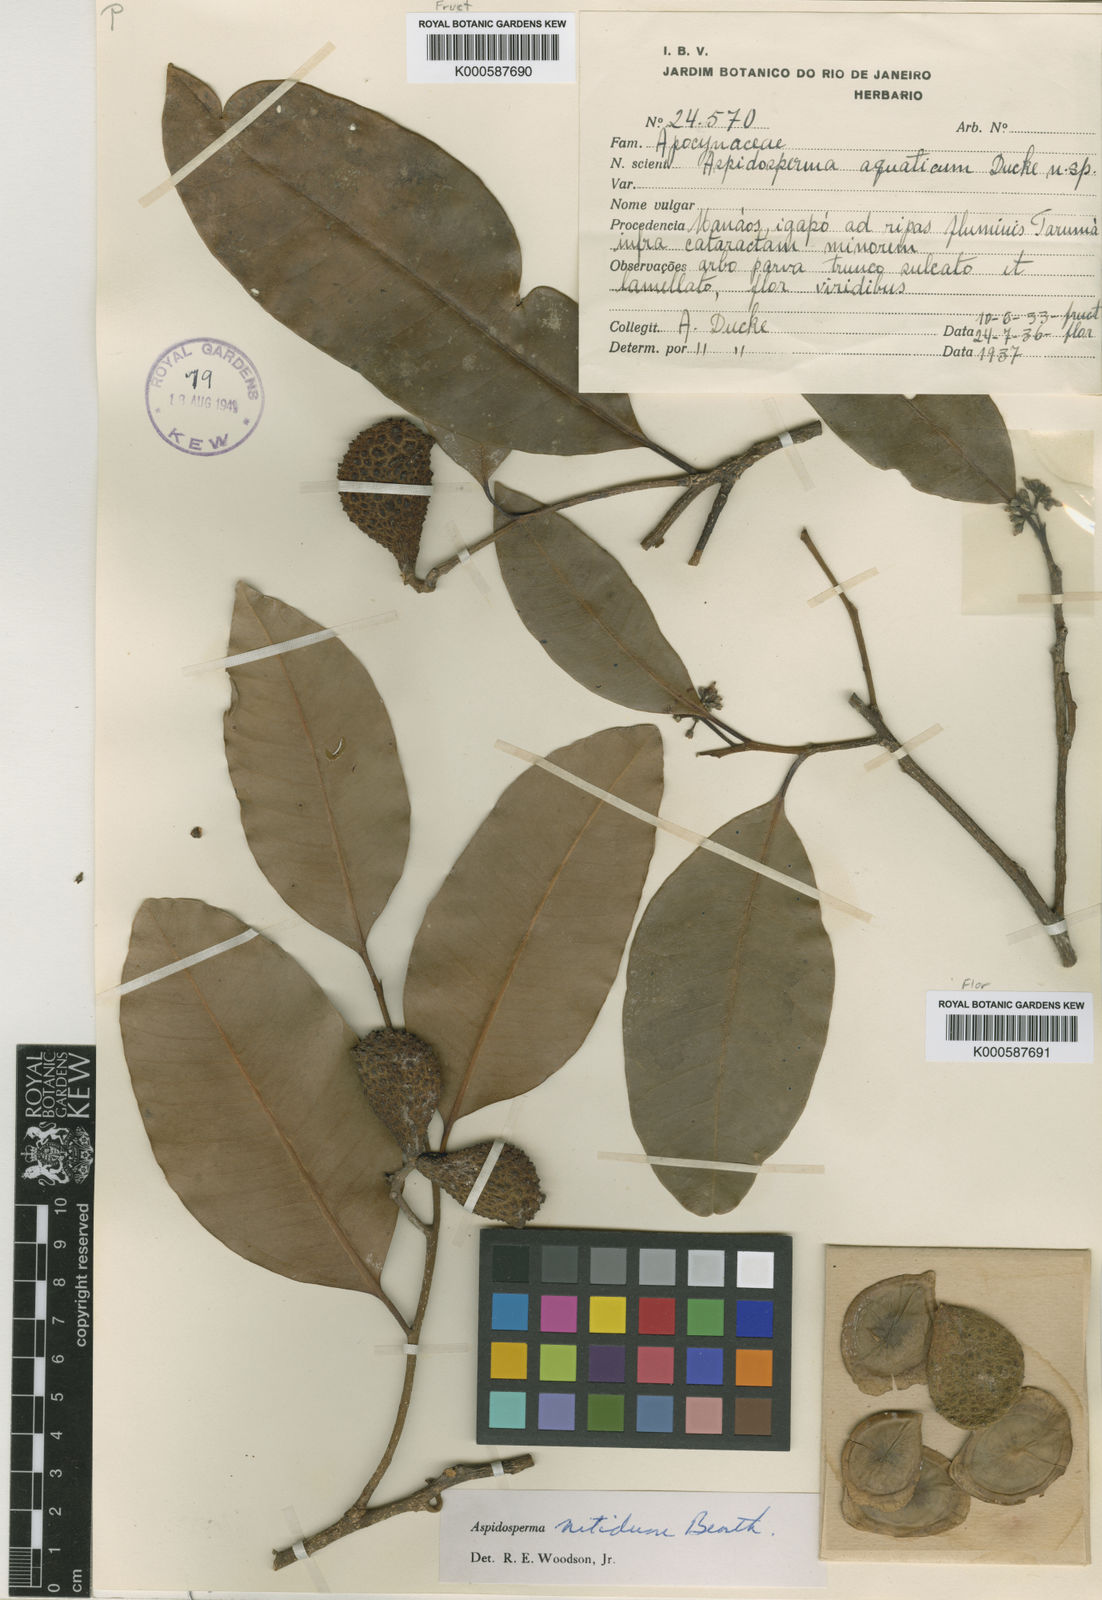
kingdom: Plantae
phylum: Tracheophyta
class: Magnoliopsida
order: Gentianales
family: Apocynaceae
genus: Aspidosperma
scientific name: Aspidosperma
